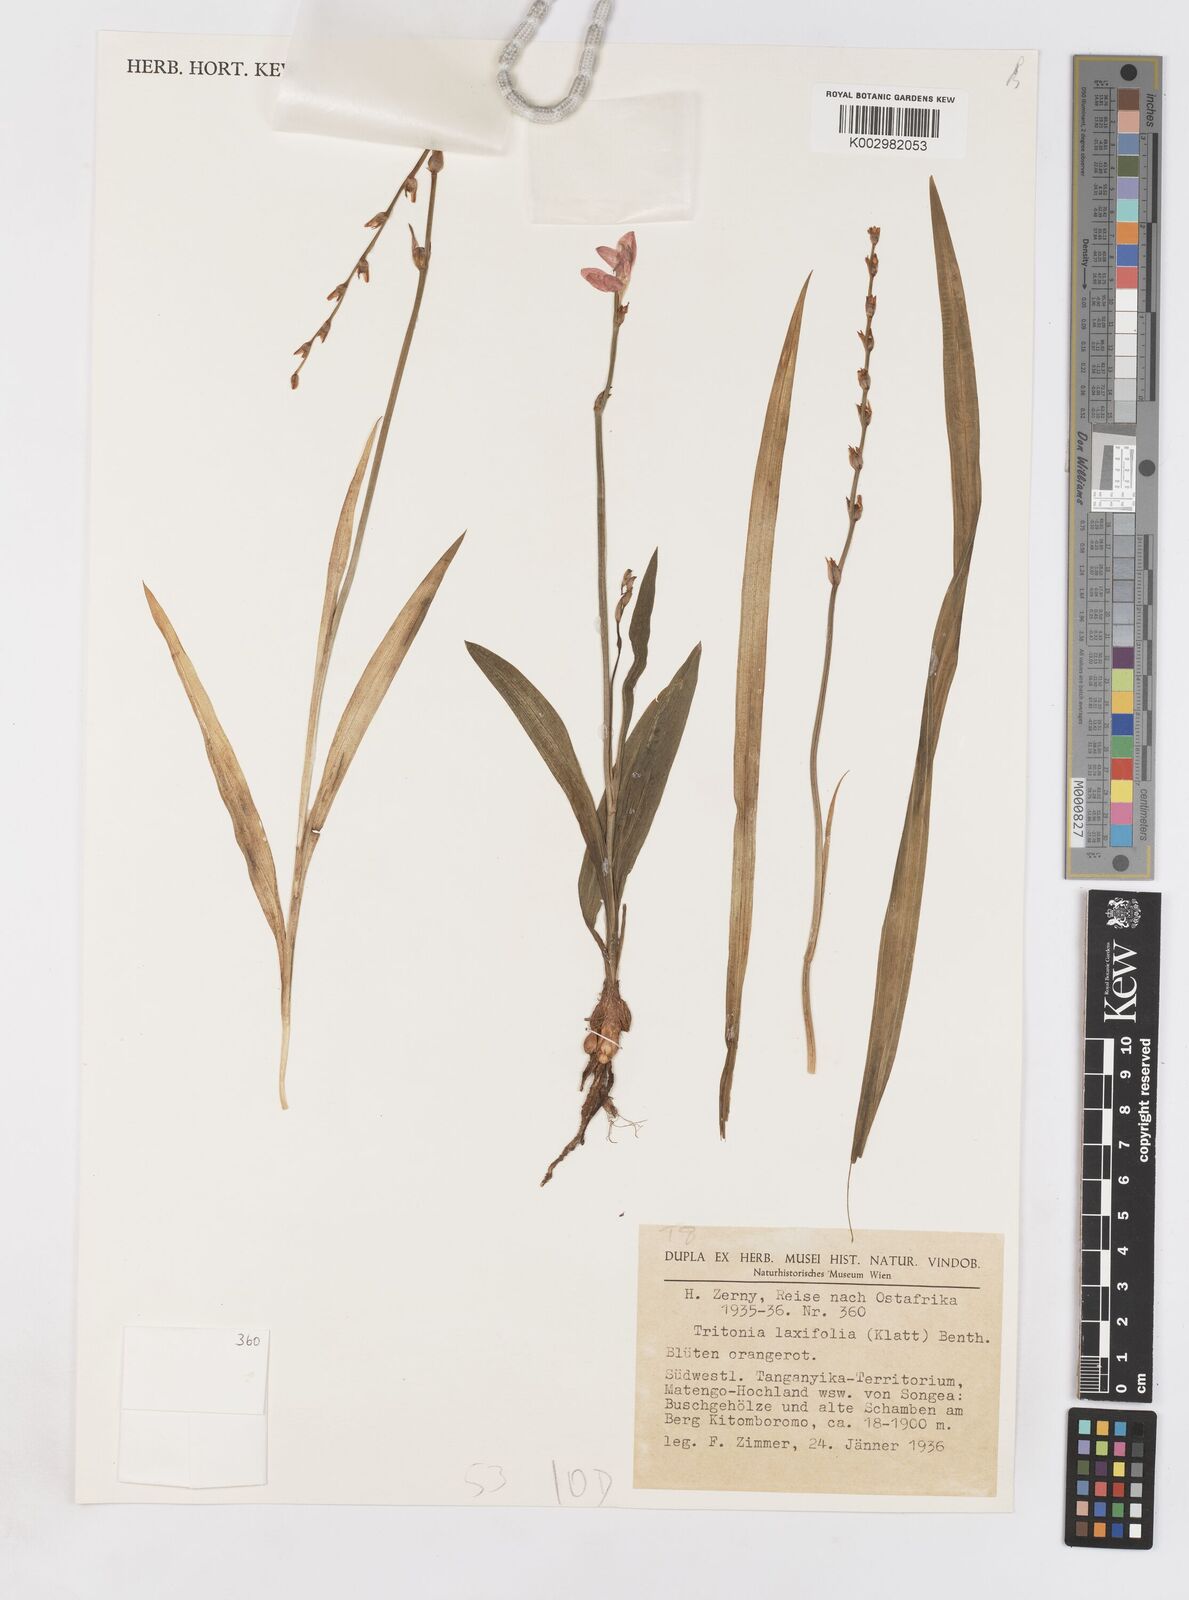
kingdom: Plantae
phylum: Tracheophyta
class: Liliopsida
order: Asparagales
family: Iridaceae
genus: Tritonia
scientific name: Tritonia
